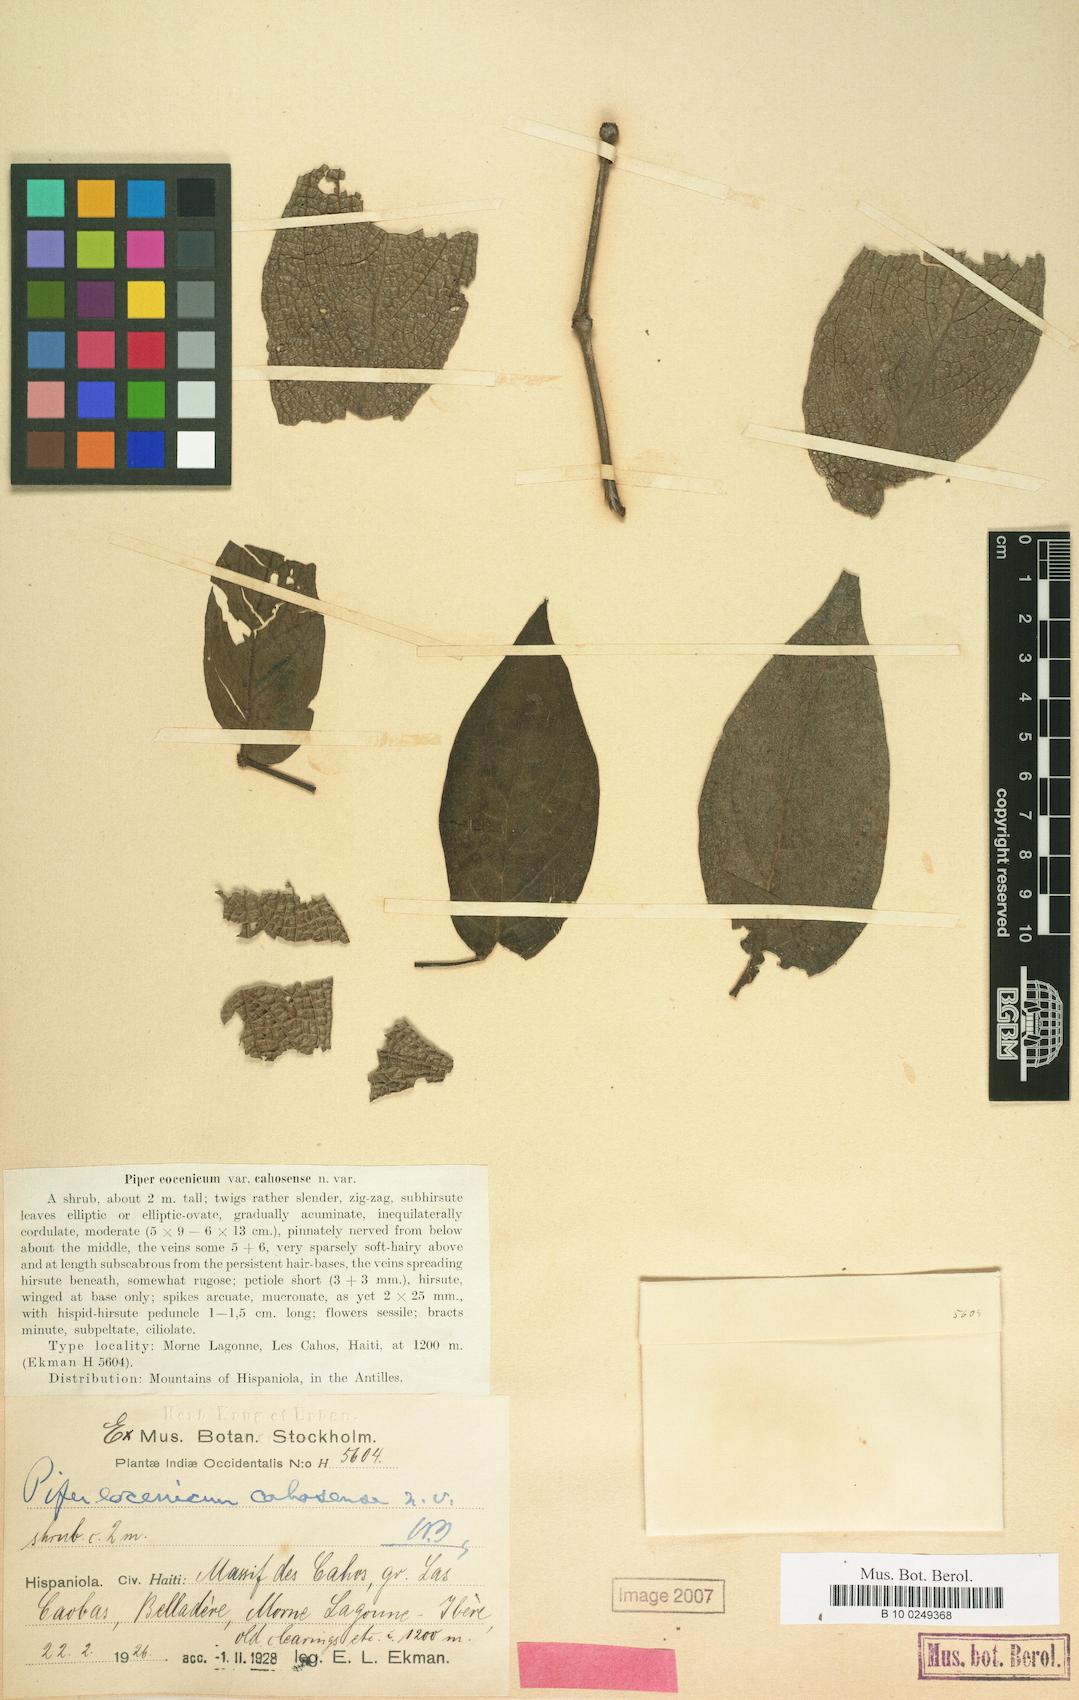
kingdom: Plantae
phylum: Tracheophyta
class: Magnoliopsida
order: Piperales
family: Piperaceae
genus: Piper
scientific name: Piper confusum
